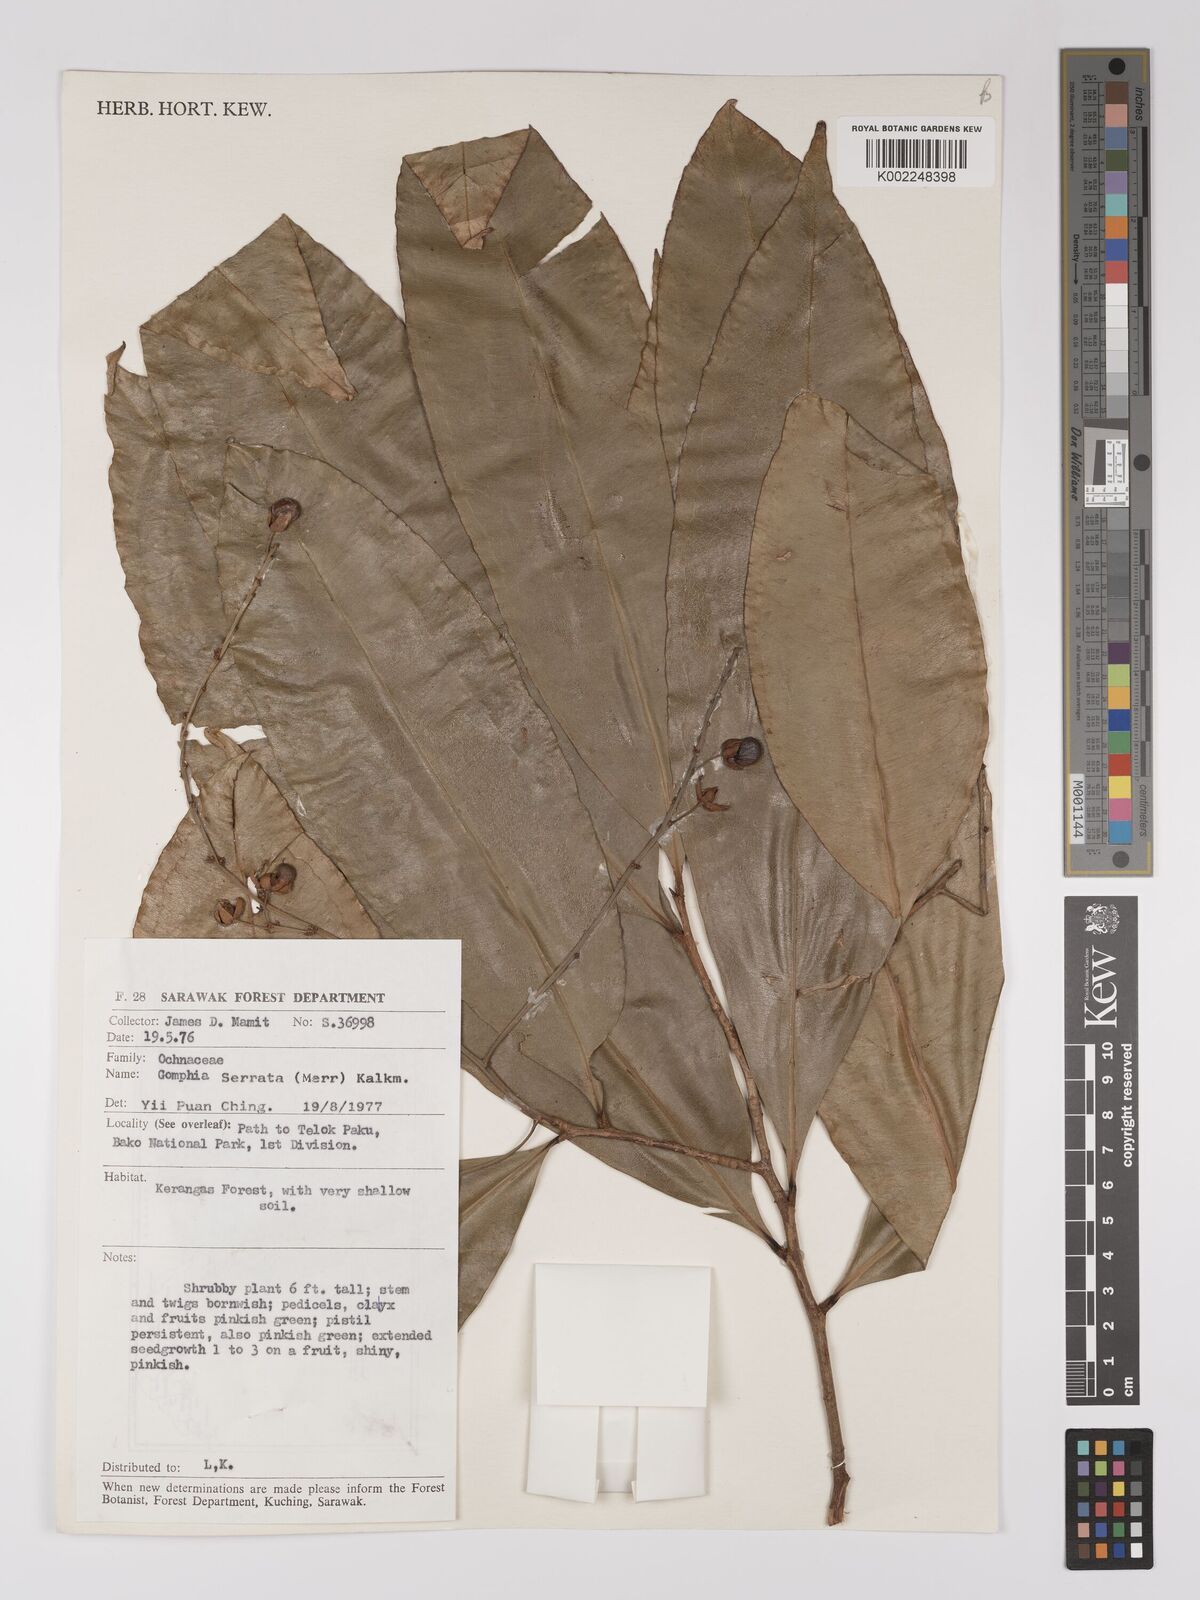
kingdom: Plantae
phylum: Tracheophyta
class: Magnoliopsida
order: Malpighiales
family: Ochnaceae
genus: Gomphia
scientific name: Gomphia serrata
